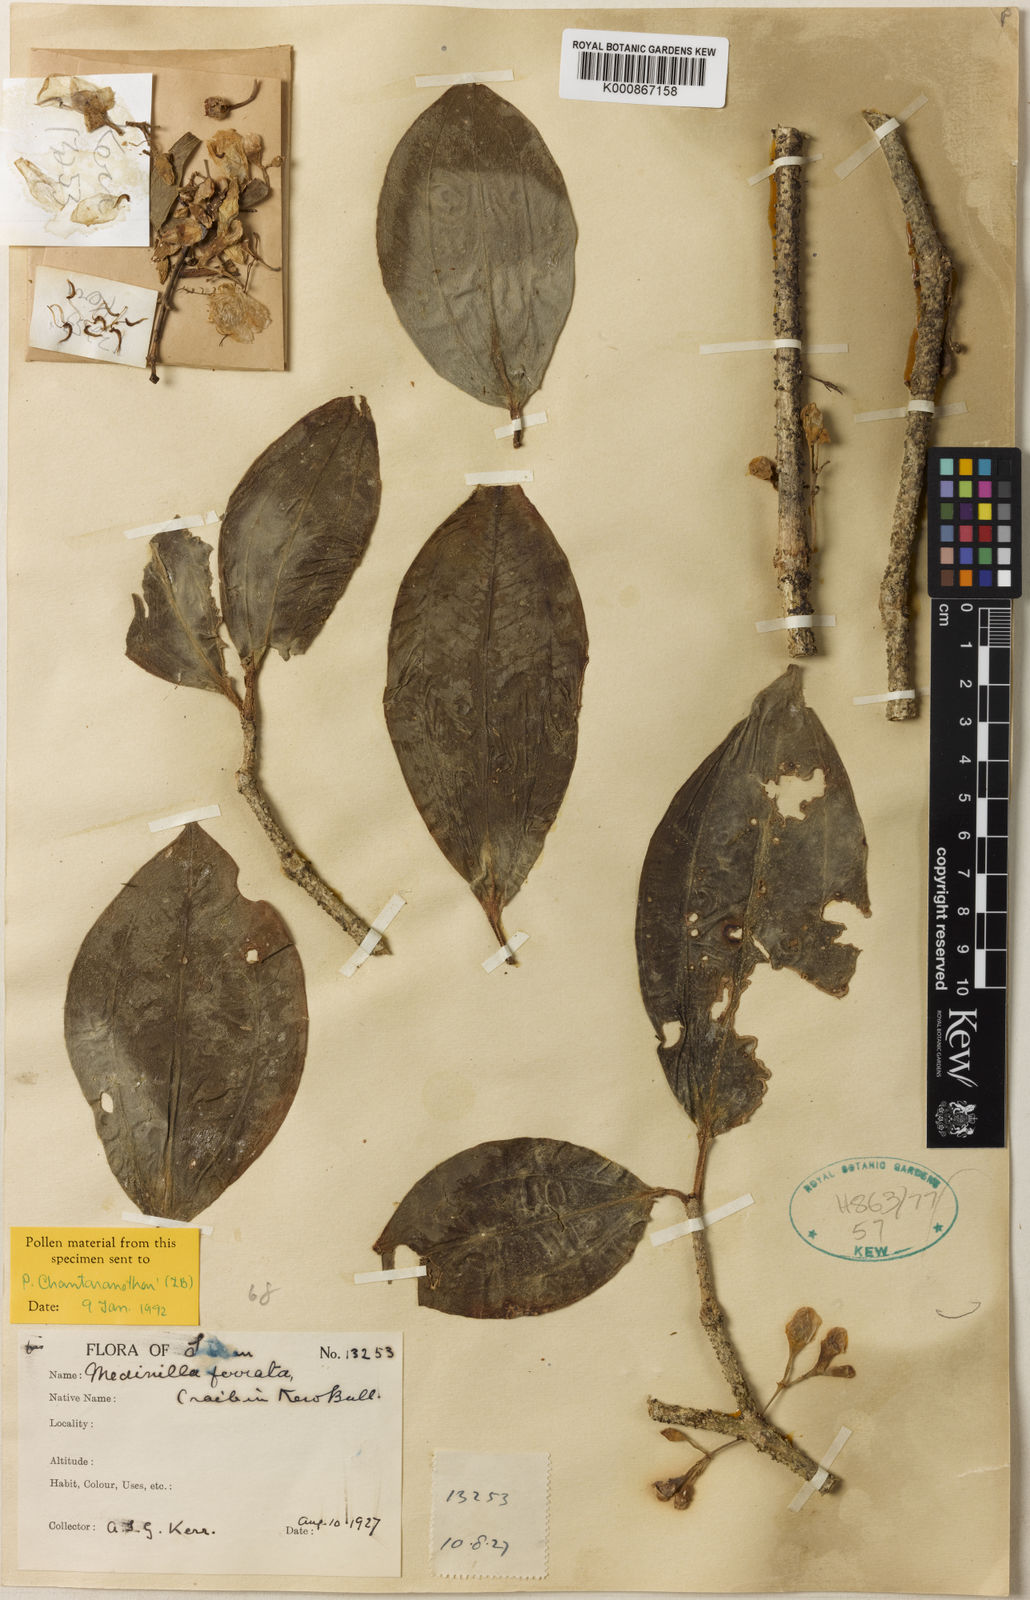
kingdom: Plantae
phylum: Tracheophyta
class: Magnoliopsida
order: Myrtales
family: Melastomataceae
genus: Medinilla
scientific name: Medinilla laurifolia
